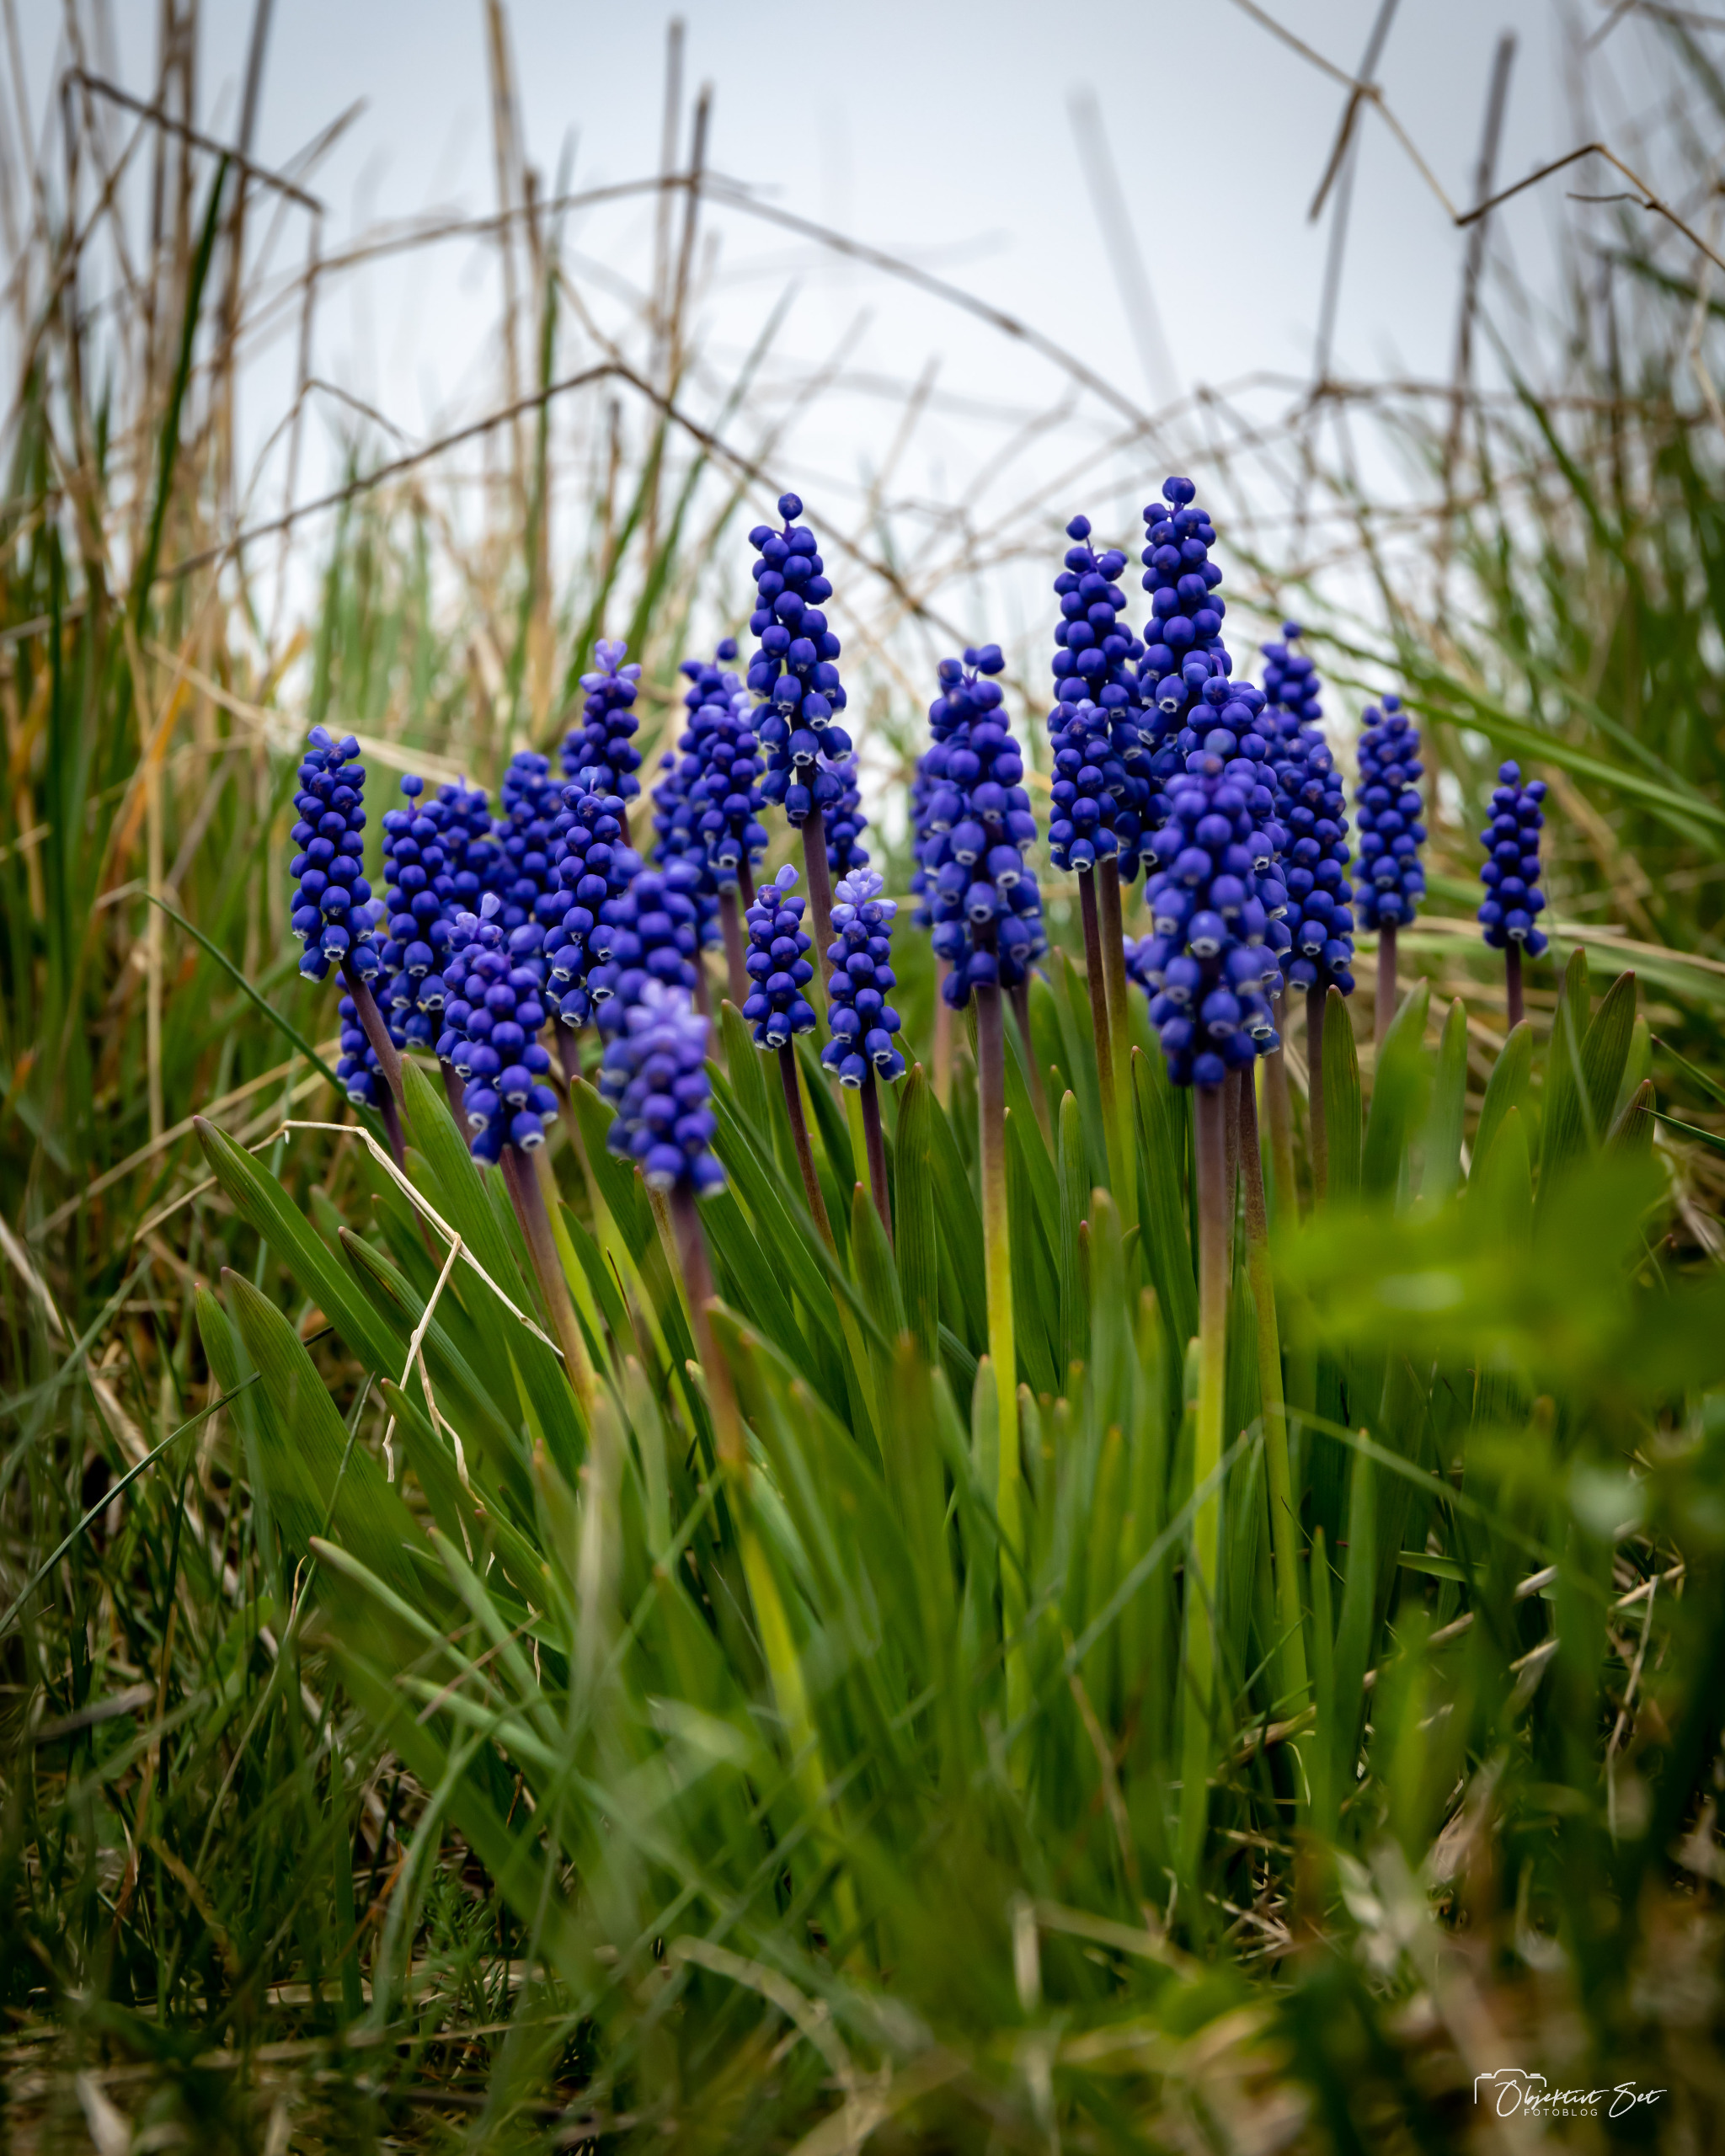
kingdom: Plantae
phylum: Tracheophyta
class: Liliopsida
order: Asparagales
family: Asparagaceae
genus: Muscari
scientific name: Muscari botryoides
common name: Perlehyacint
